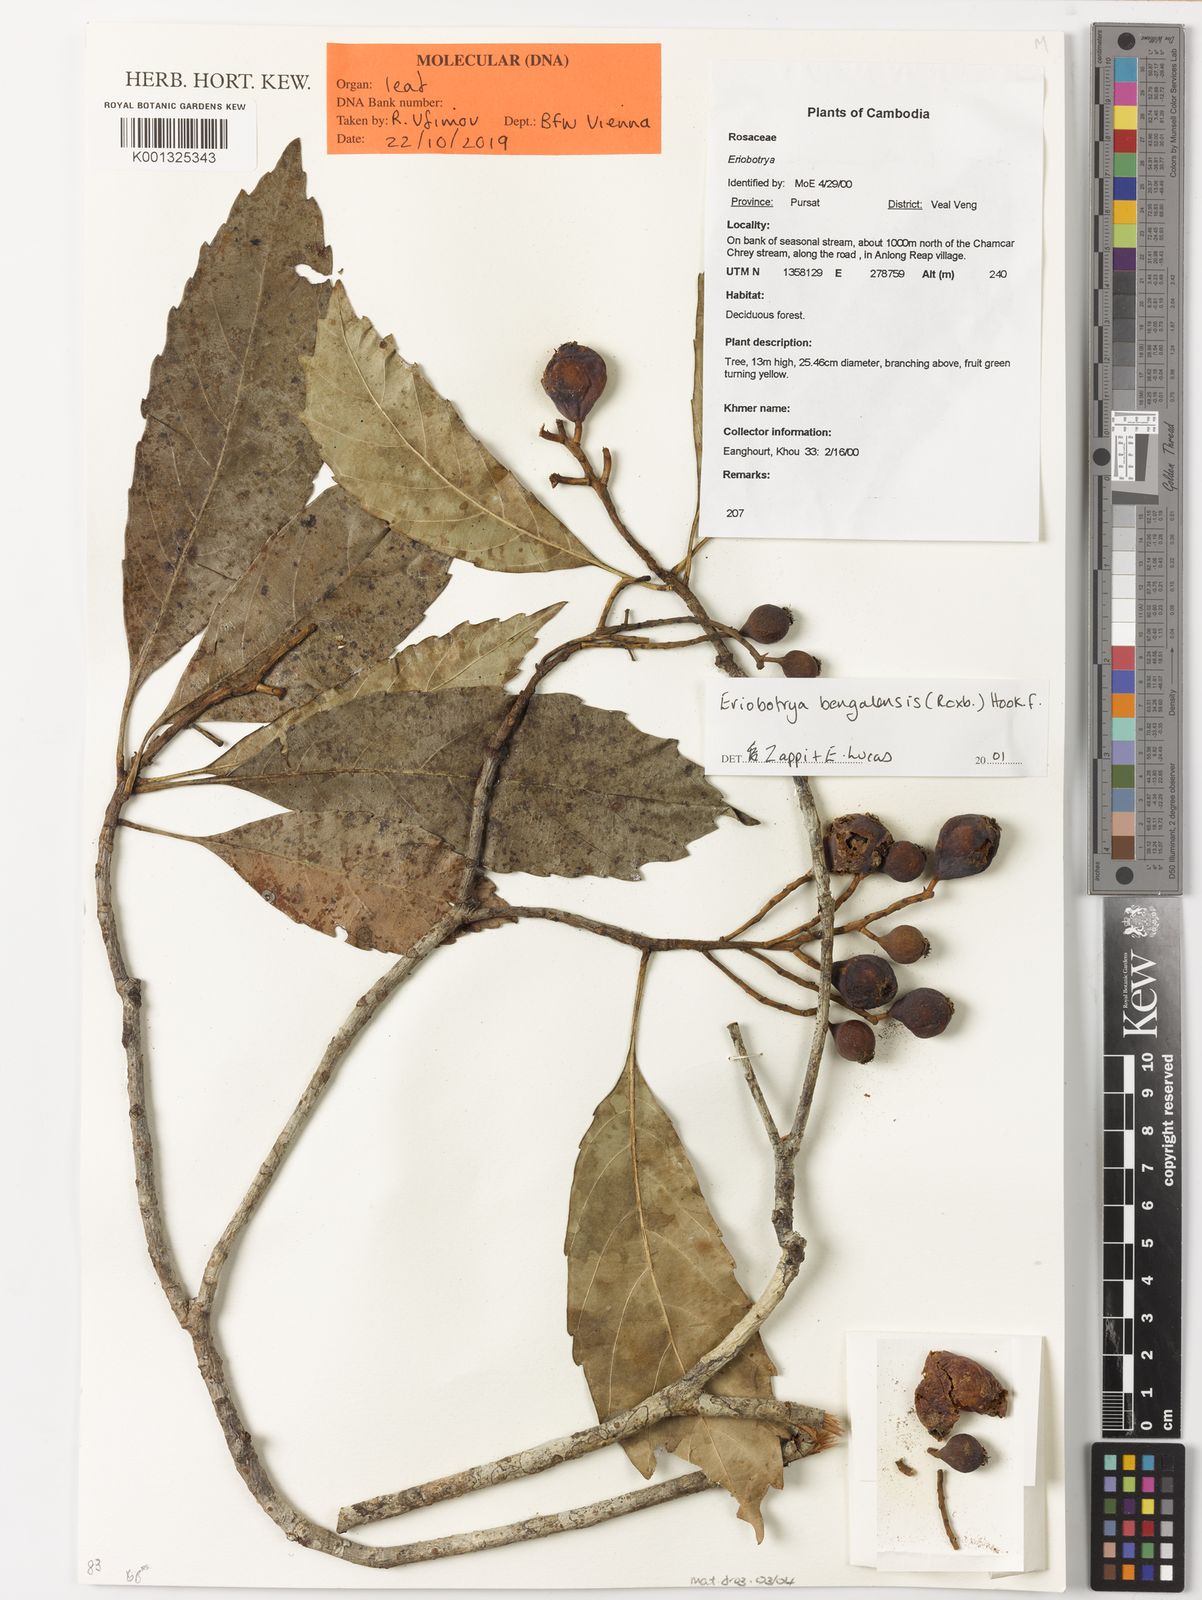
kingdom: Plantae
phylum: Tracheophyta
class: Magnoliopsida
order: Rosales
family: Rosaceae
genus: Rhaphiolepis
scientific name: Rhaphiolepis
